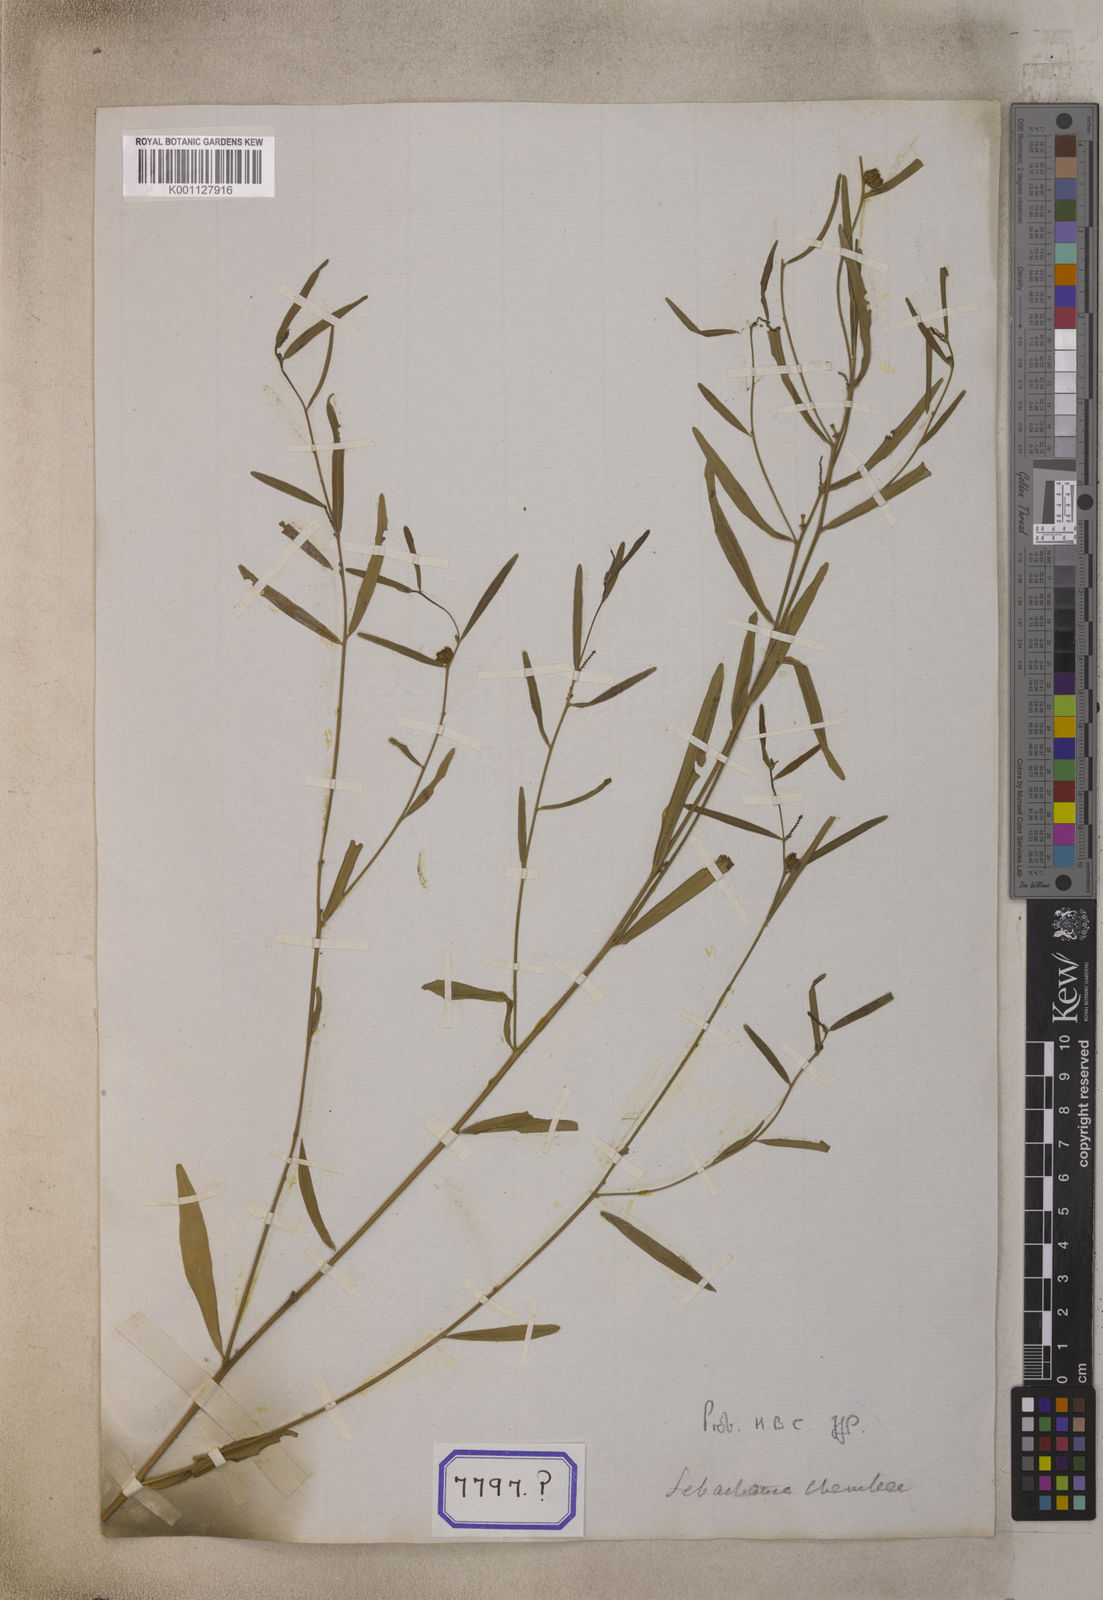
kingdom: Plantae
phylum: Tracheophyta
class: Magnoliopsida
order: Malpighiales
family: Euphorbiaceae
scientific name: Euphorbiaceae
